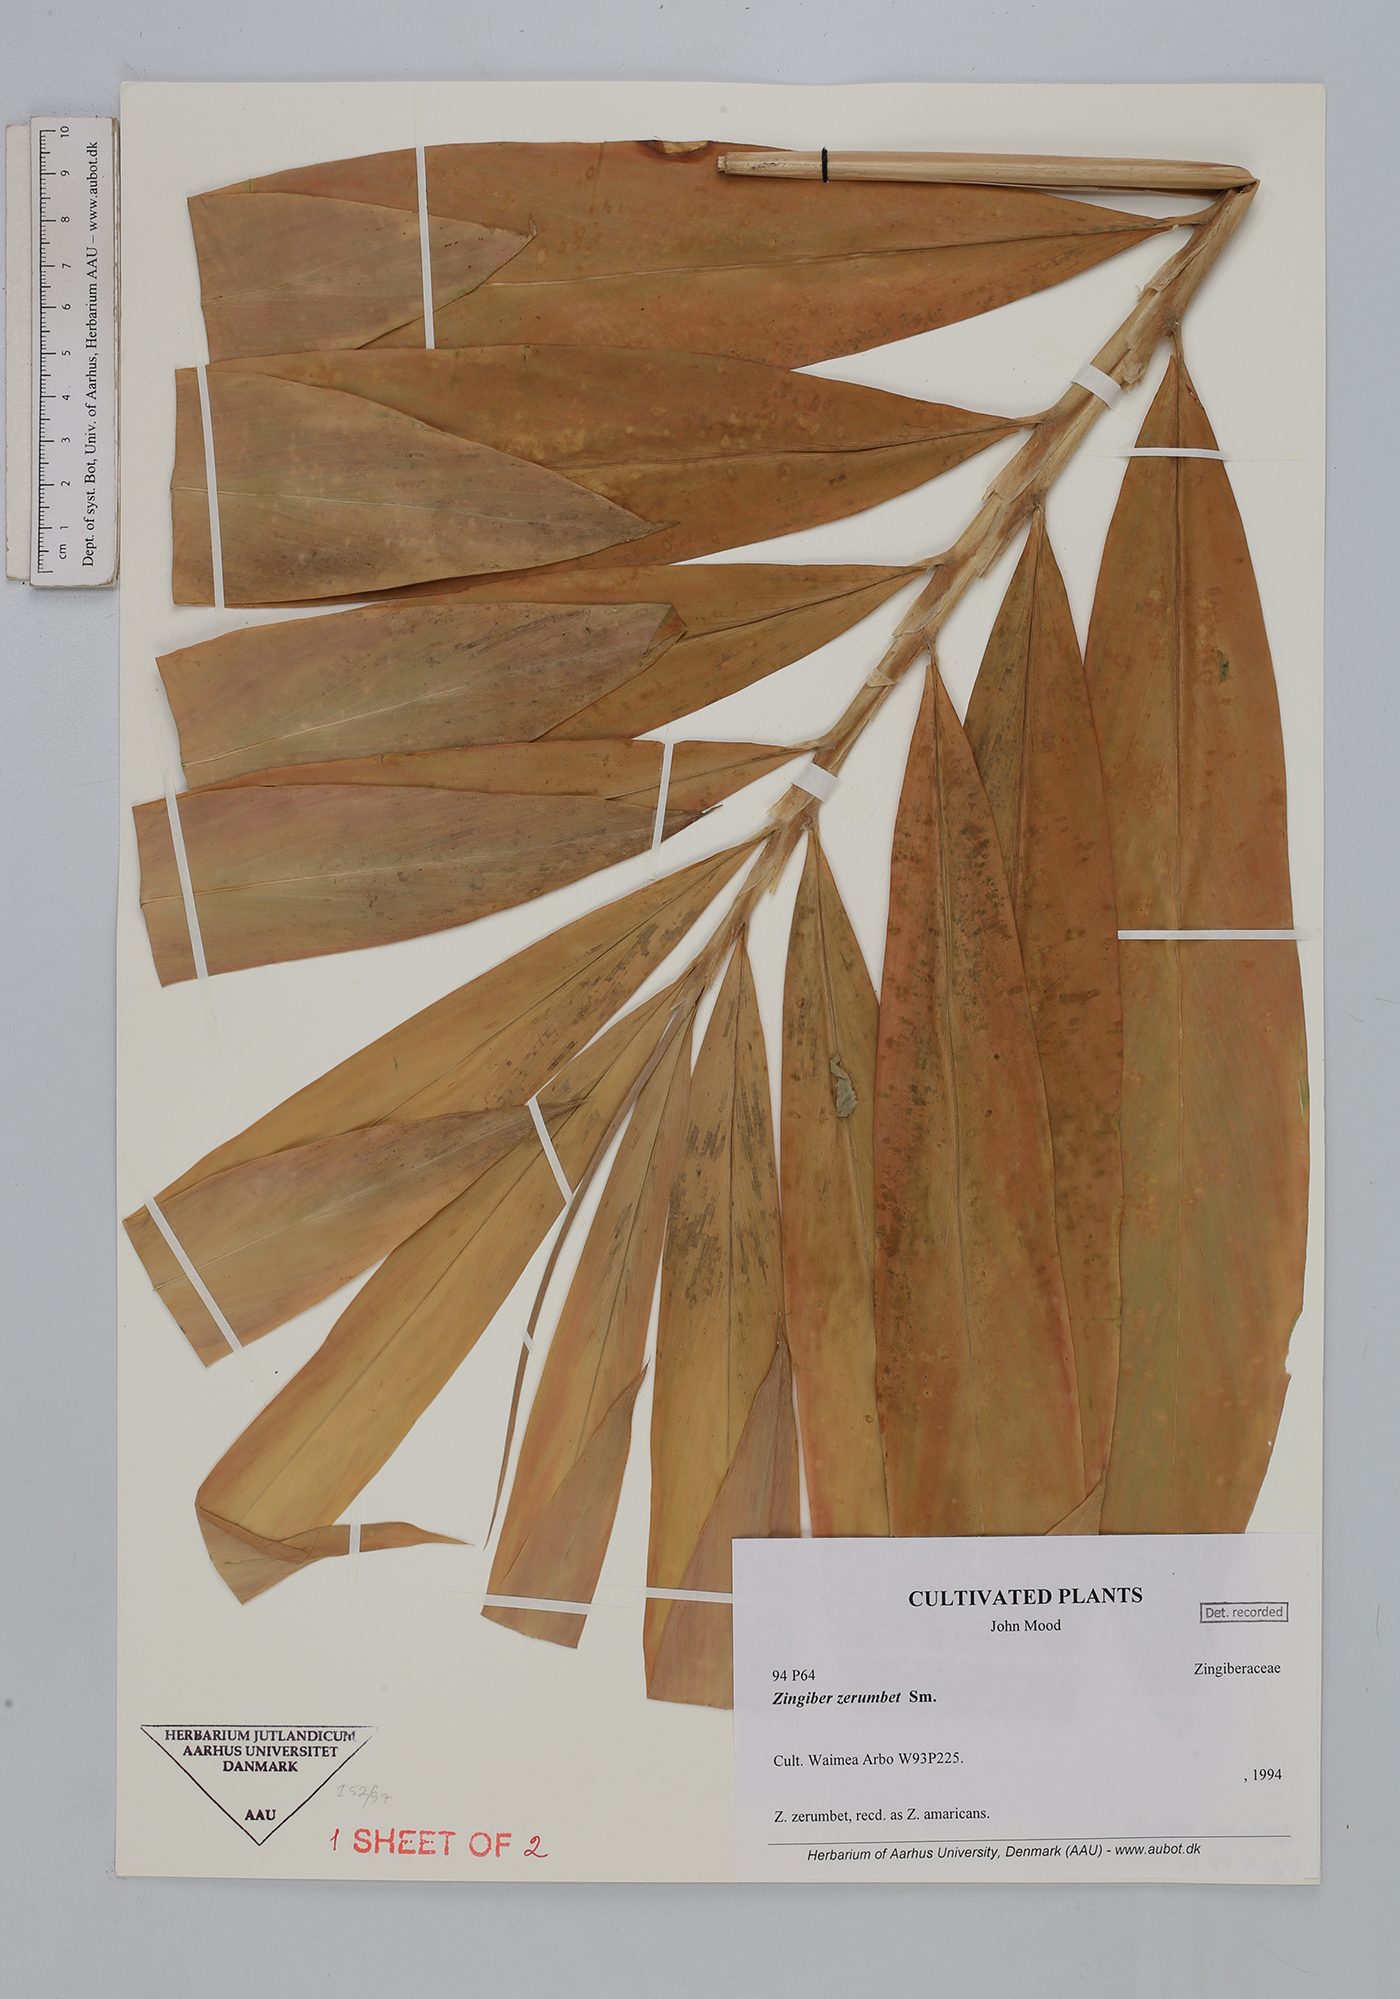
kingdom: Plantae
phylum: Tracheophyta
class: Liliopsida
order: Zingiberales
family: Zingiberaceae
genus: Zingiber
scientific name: Zingiber zerumbet
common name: Bitter ginger
